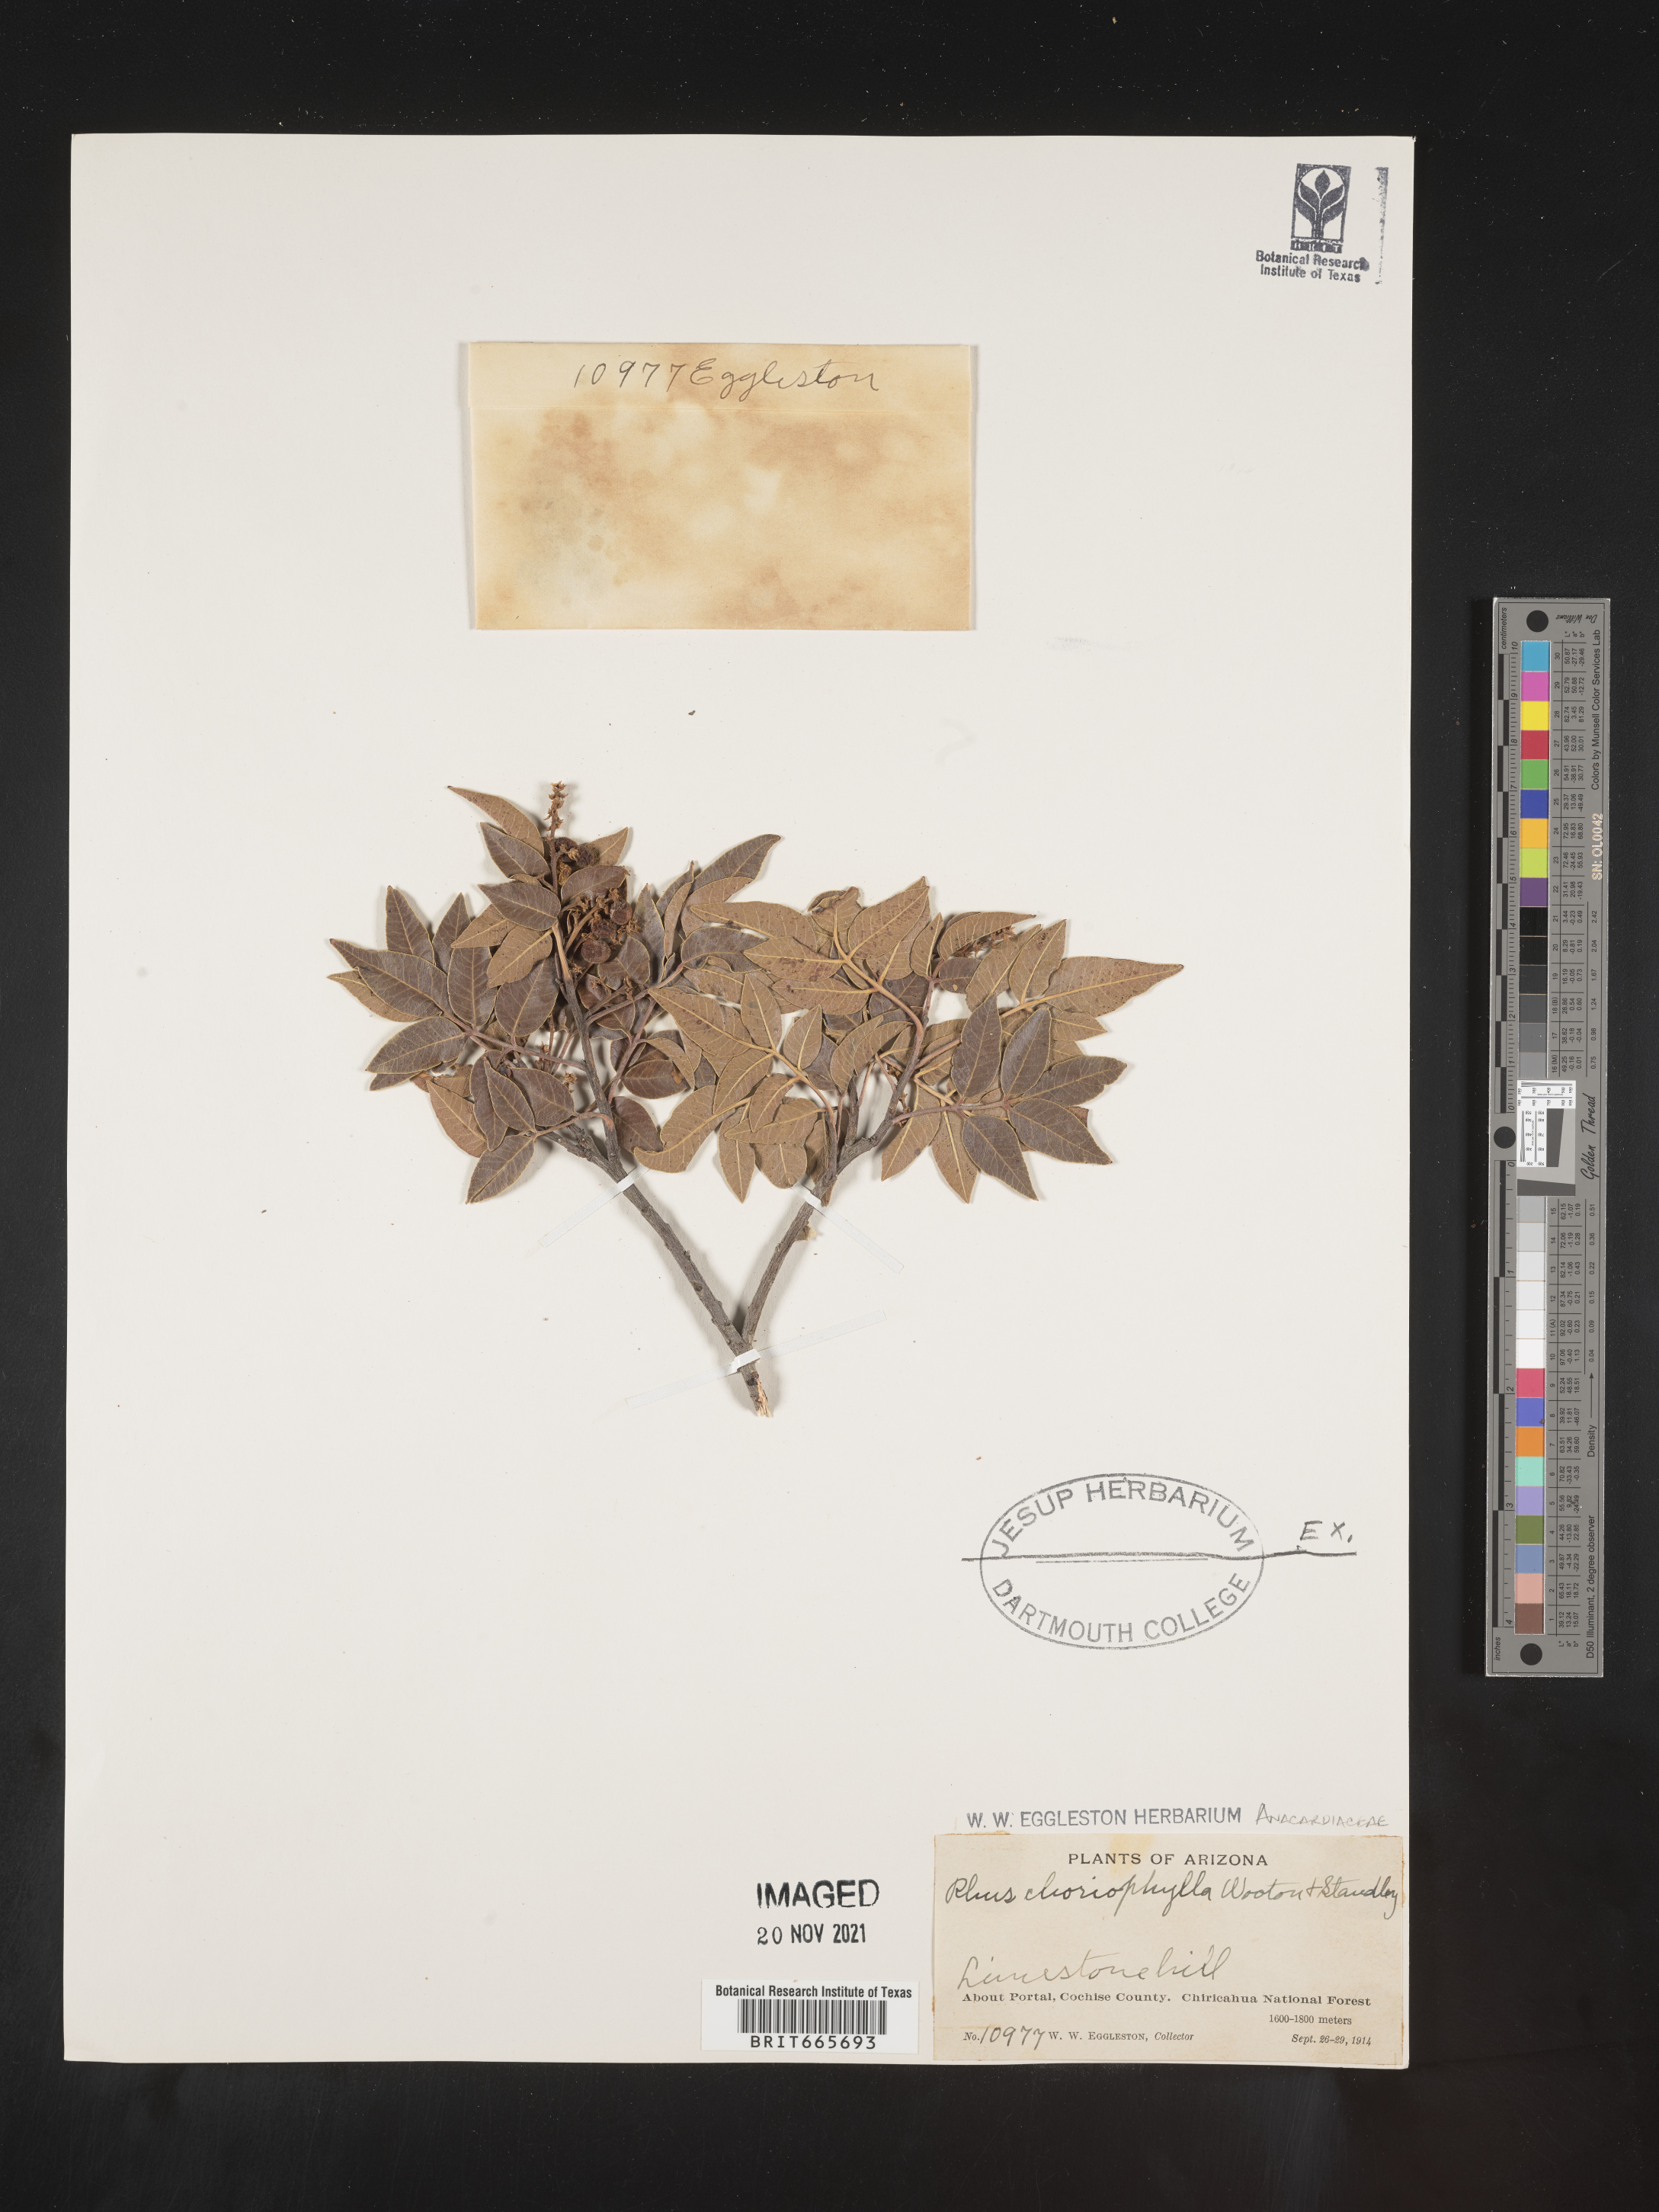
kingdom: Plantae
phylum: Tracheophyta
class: Magnoliopsida
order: Sapindales
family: Anacardiaceae
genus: Rhus
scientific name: Rhus
